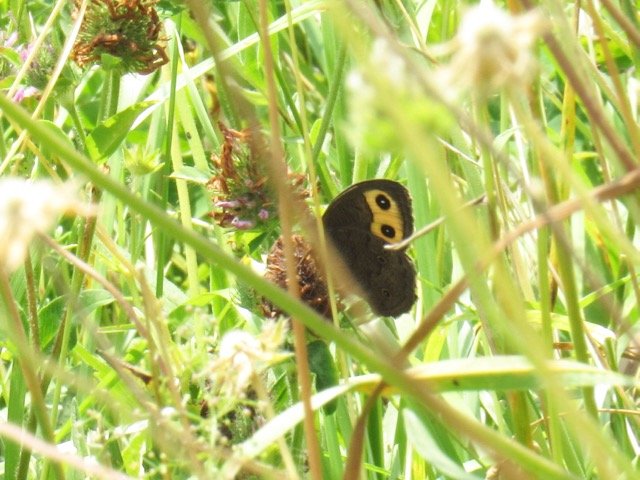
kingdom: Animalia
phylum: Arthropoda
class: Insecta
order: Lepidoptera
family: Nymphalidae
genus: Cercyonis
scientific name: Cercyonis pegala
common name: Common Wood-Nymph
